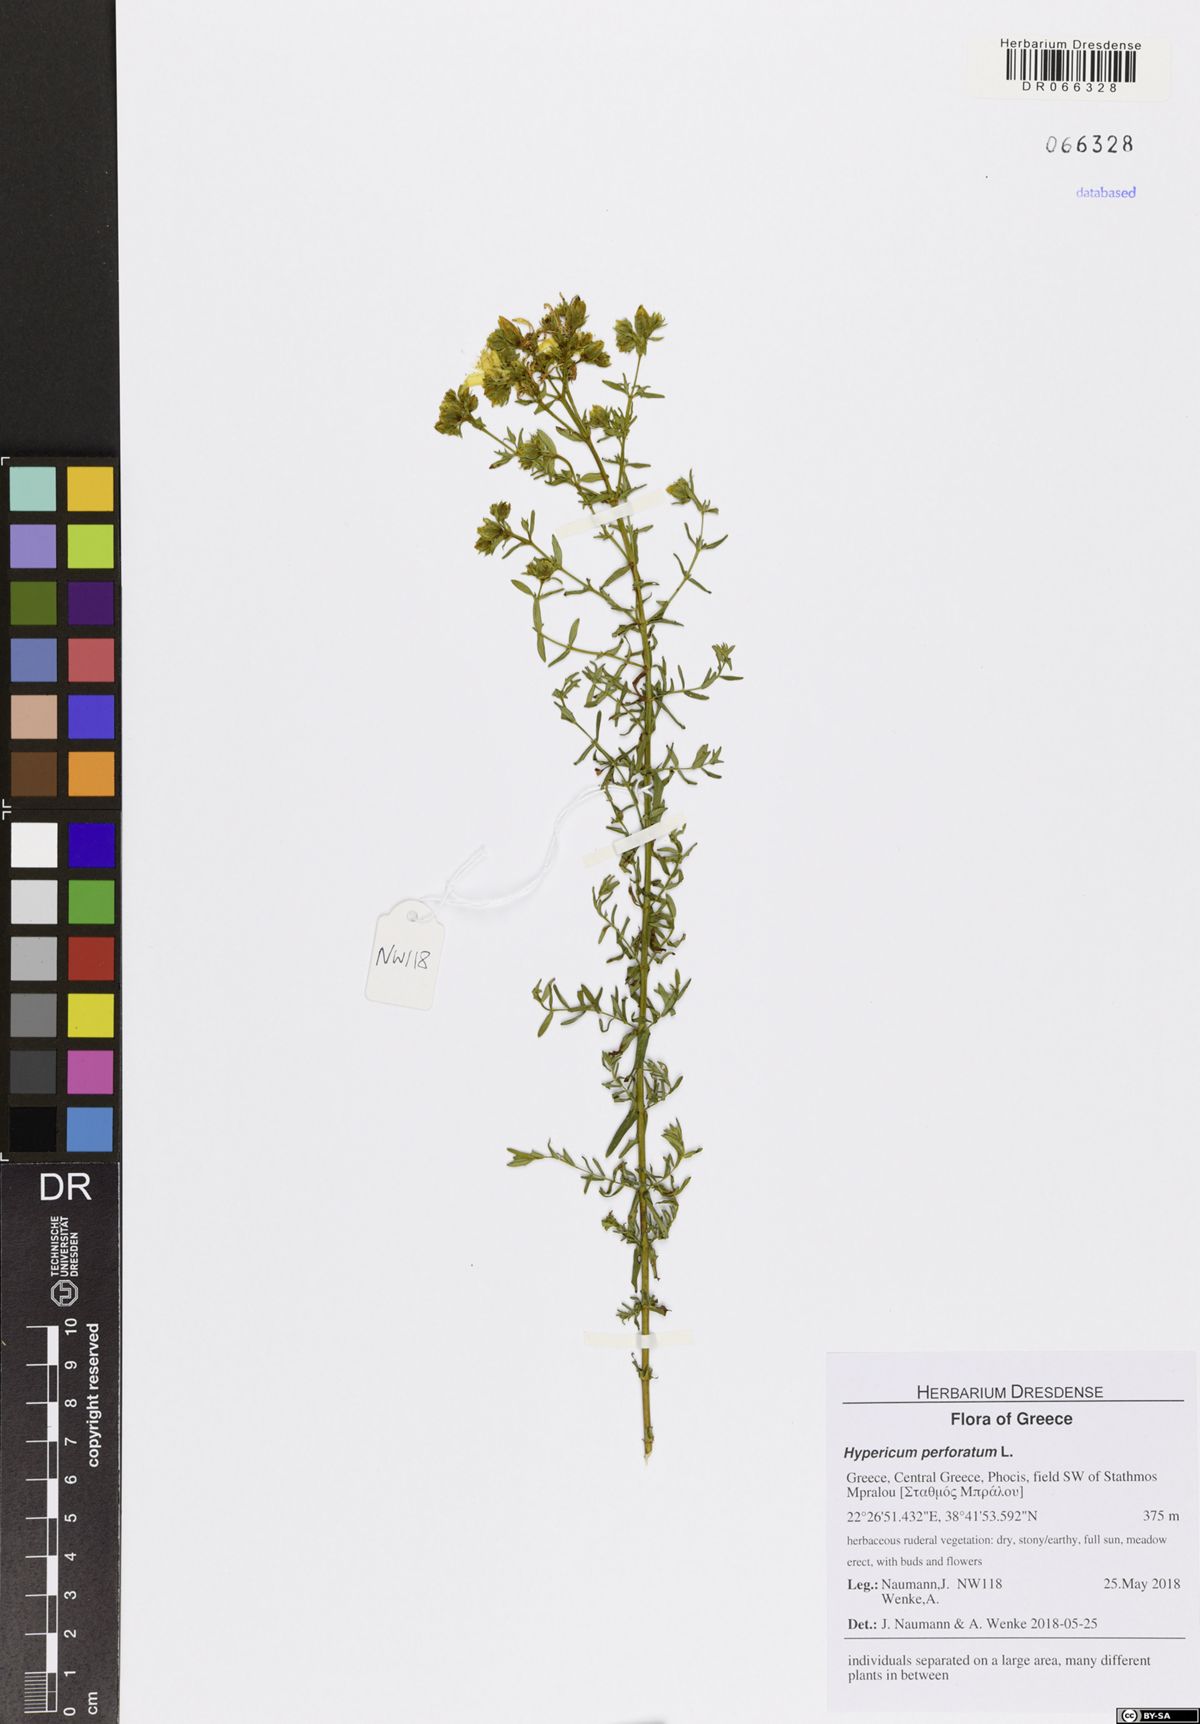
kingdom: Plantae
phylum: Tracheophyta
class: Magnoliopsida
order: Malpighiales
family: Hypericaceae
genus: Hypericum
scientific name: Hypericum perforatum
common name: Common st. johnswort
